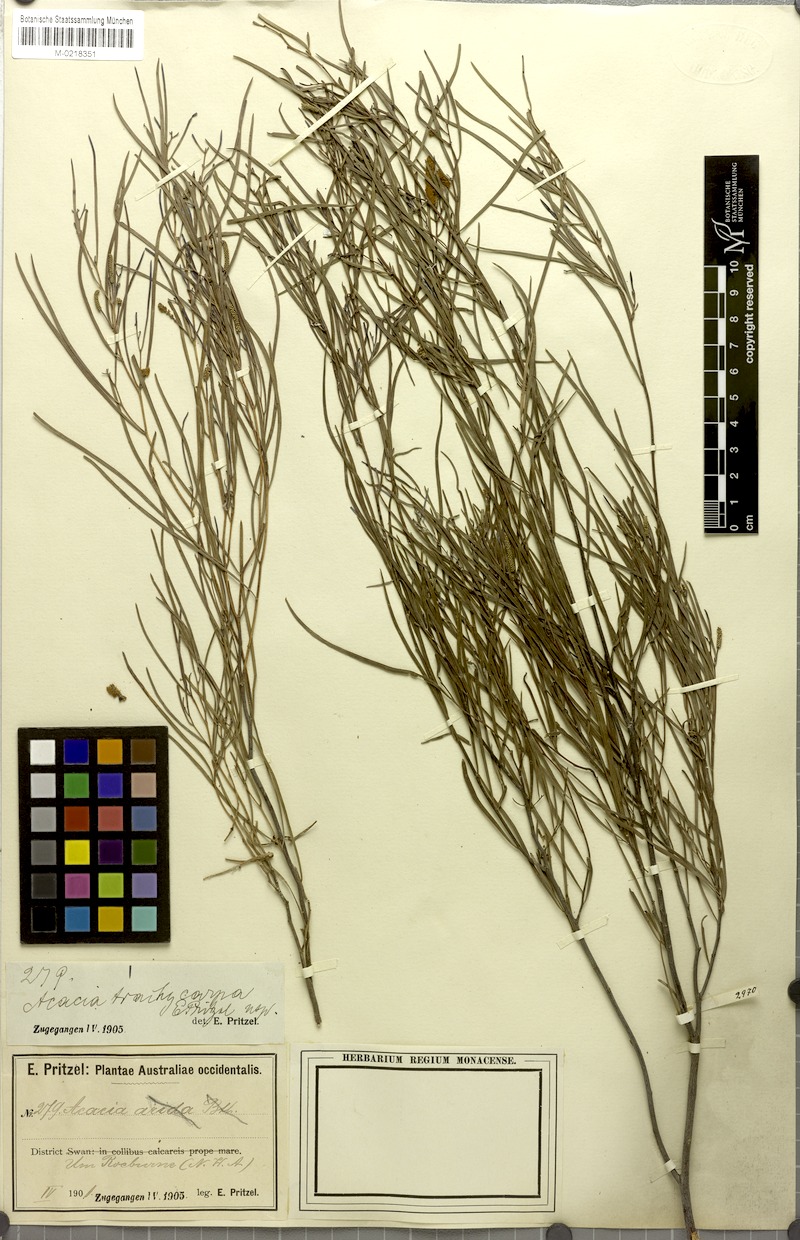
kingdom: Plantae
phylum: Tracheophyta
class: Magnoliopsida
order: Fabales
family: Fabaceae
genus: Acacia
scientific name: Acacia trachycarpa
